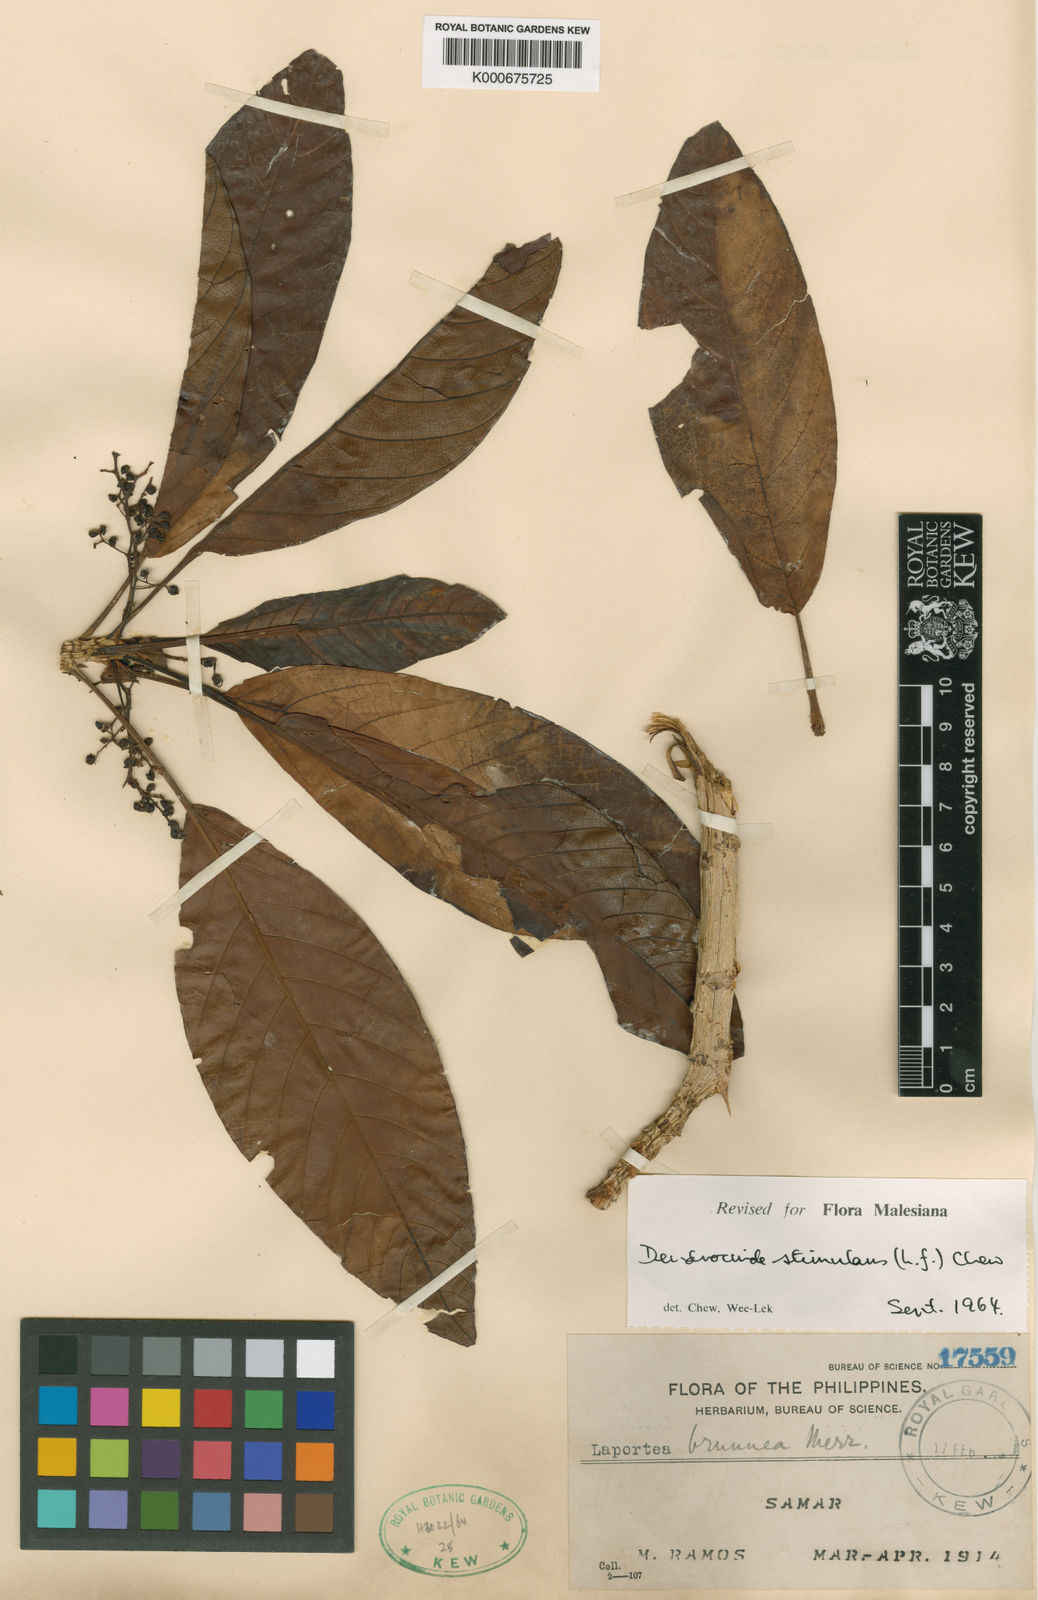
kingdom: Plantae
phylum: Tracheophyta
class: Magnoliopsida
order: Rosales
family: Urticaceae
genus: Dendrocnide
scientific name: Dendrocnide stimulans
